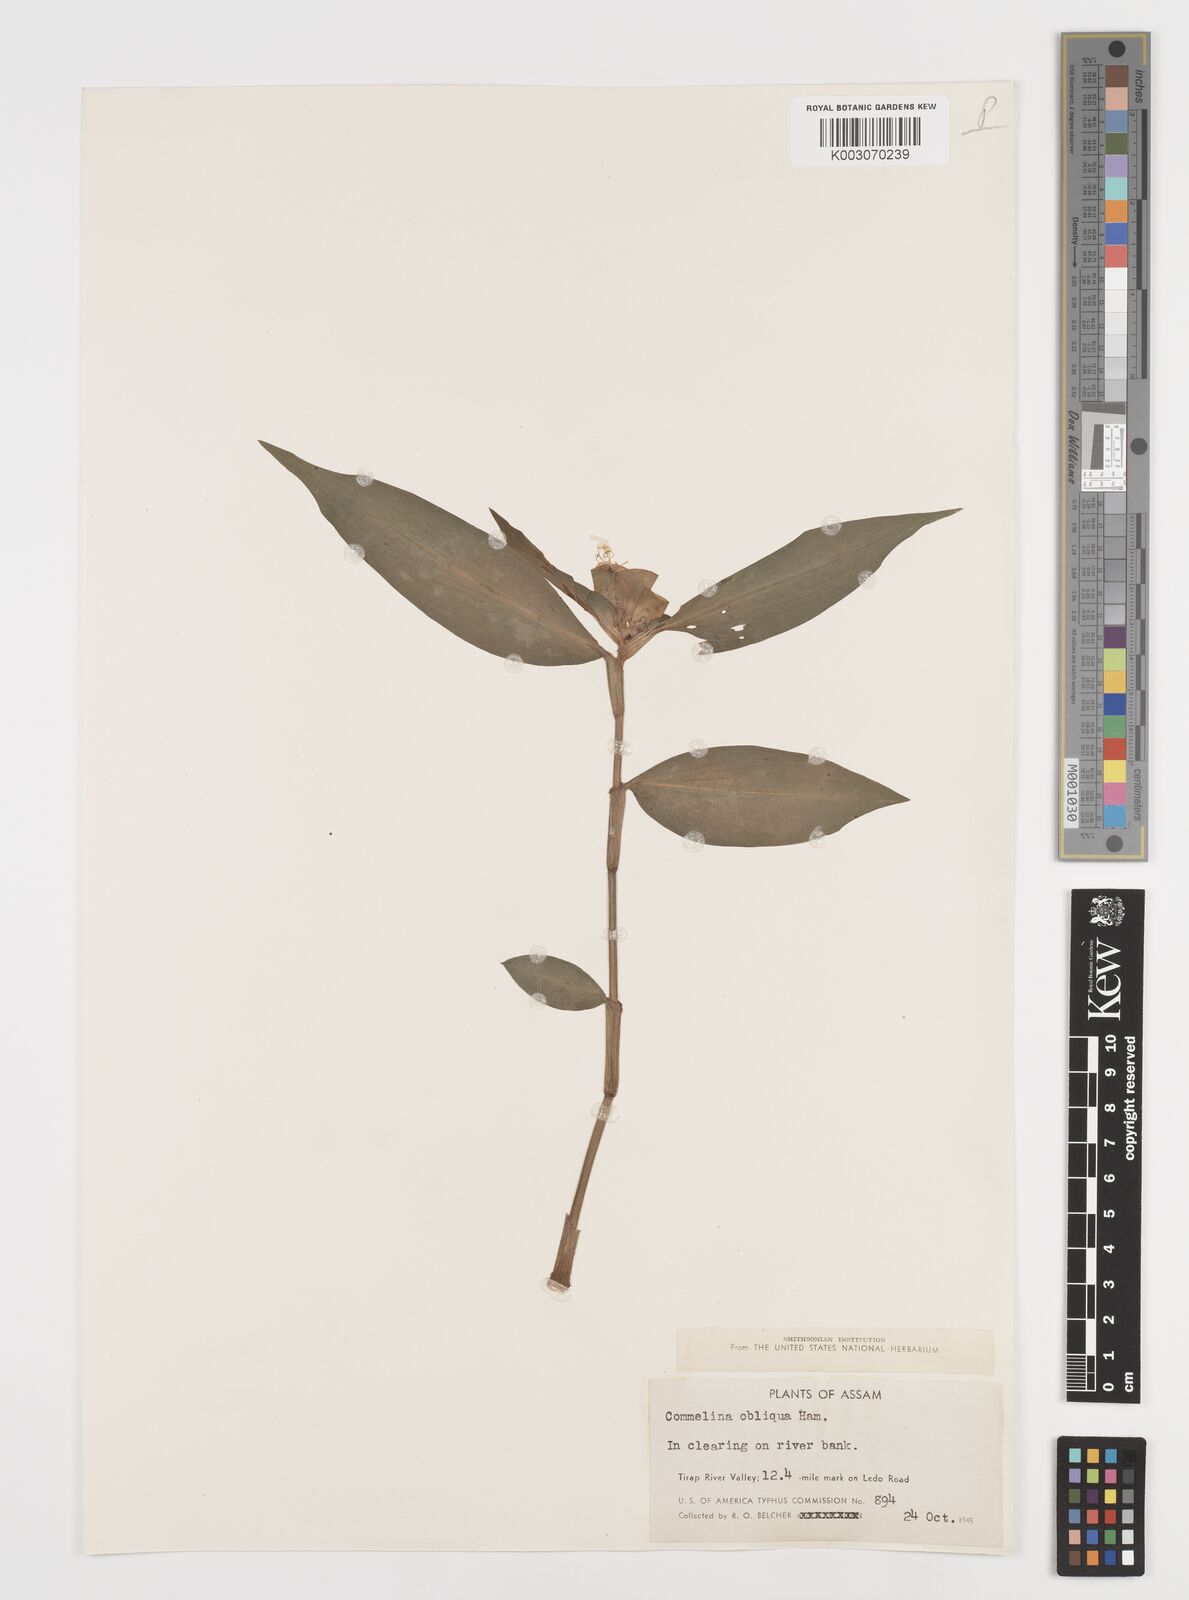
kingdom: Plantae
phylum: Tracheophyta
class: Liliopsida
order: Commelinales
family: Commelinaceae
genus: Commelina
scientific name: Commelina paludosa
